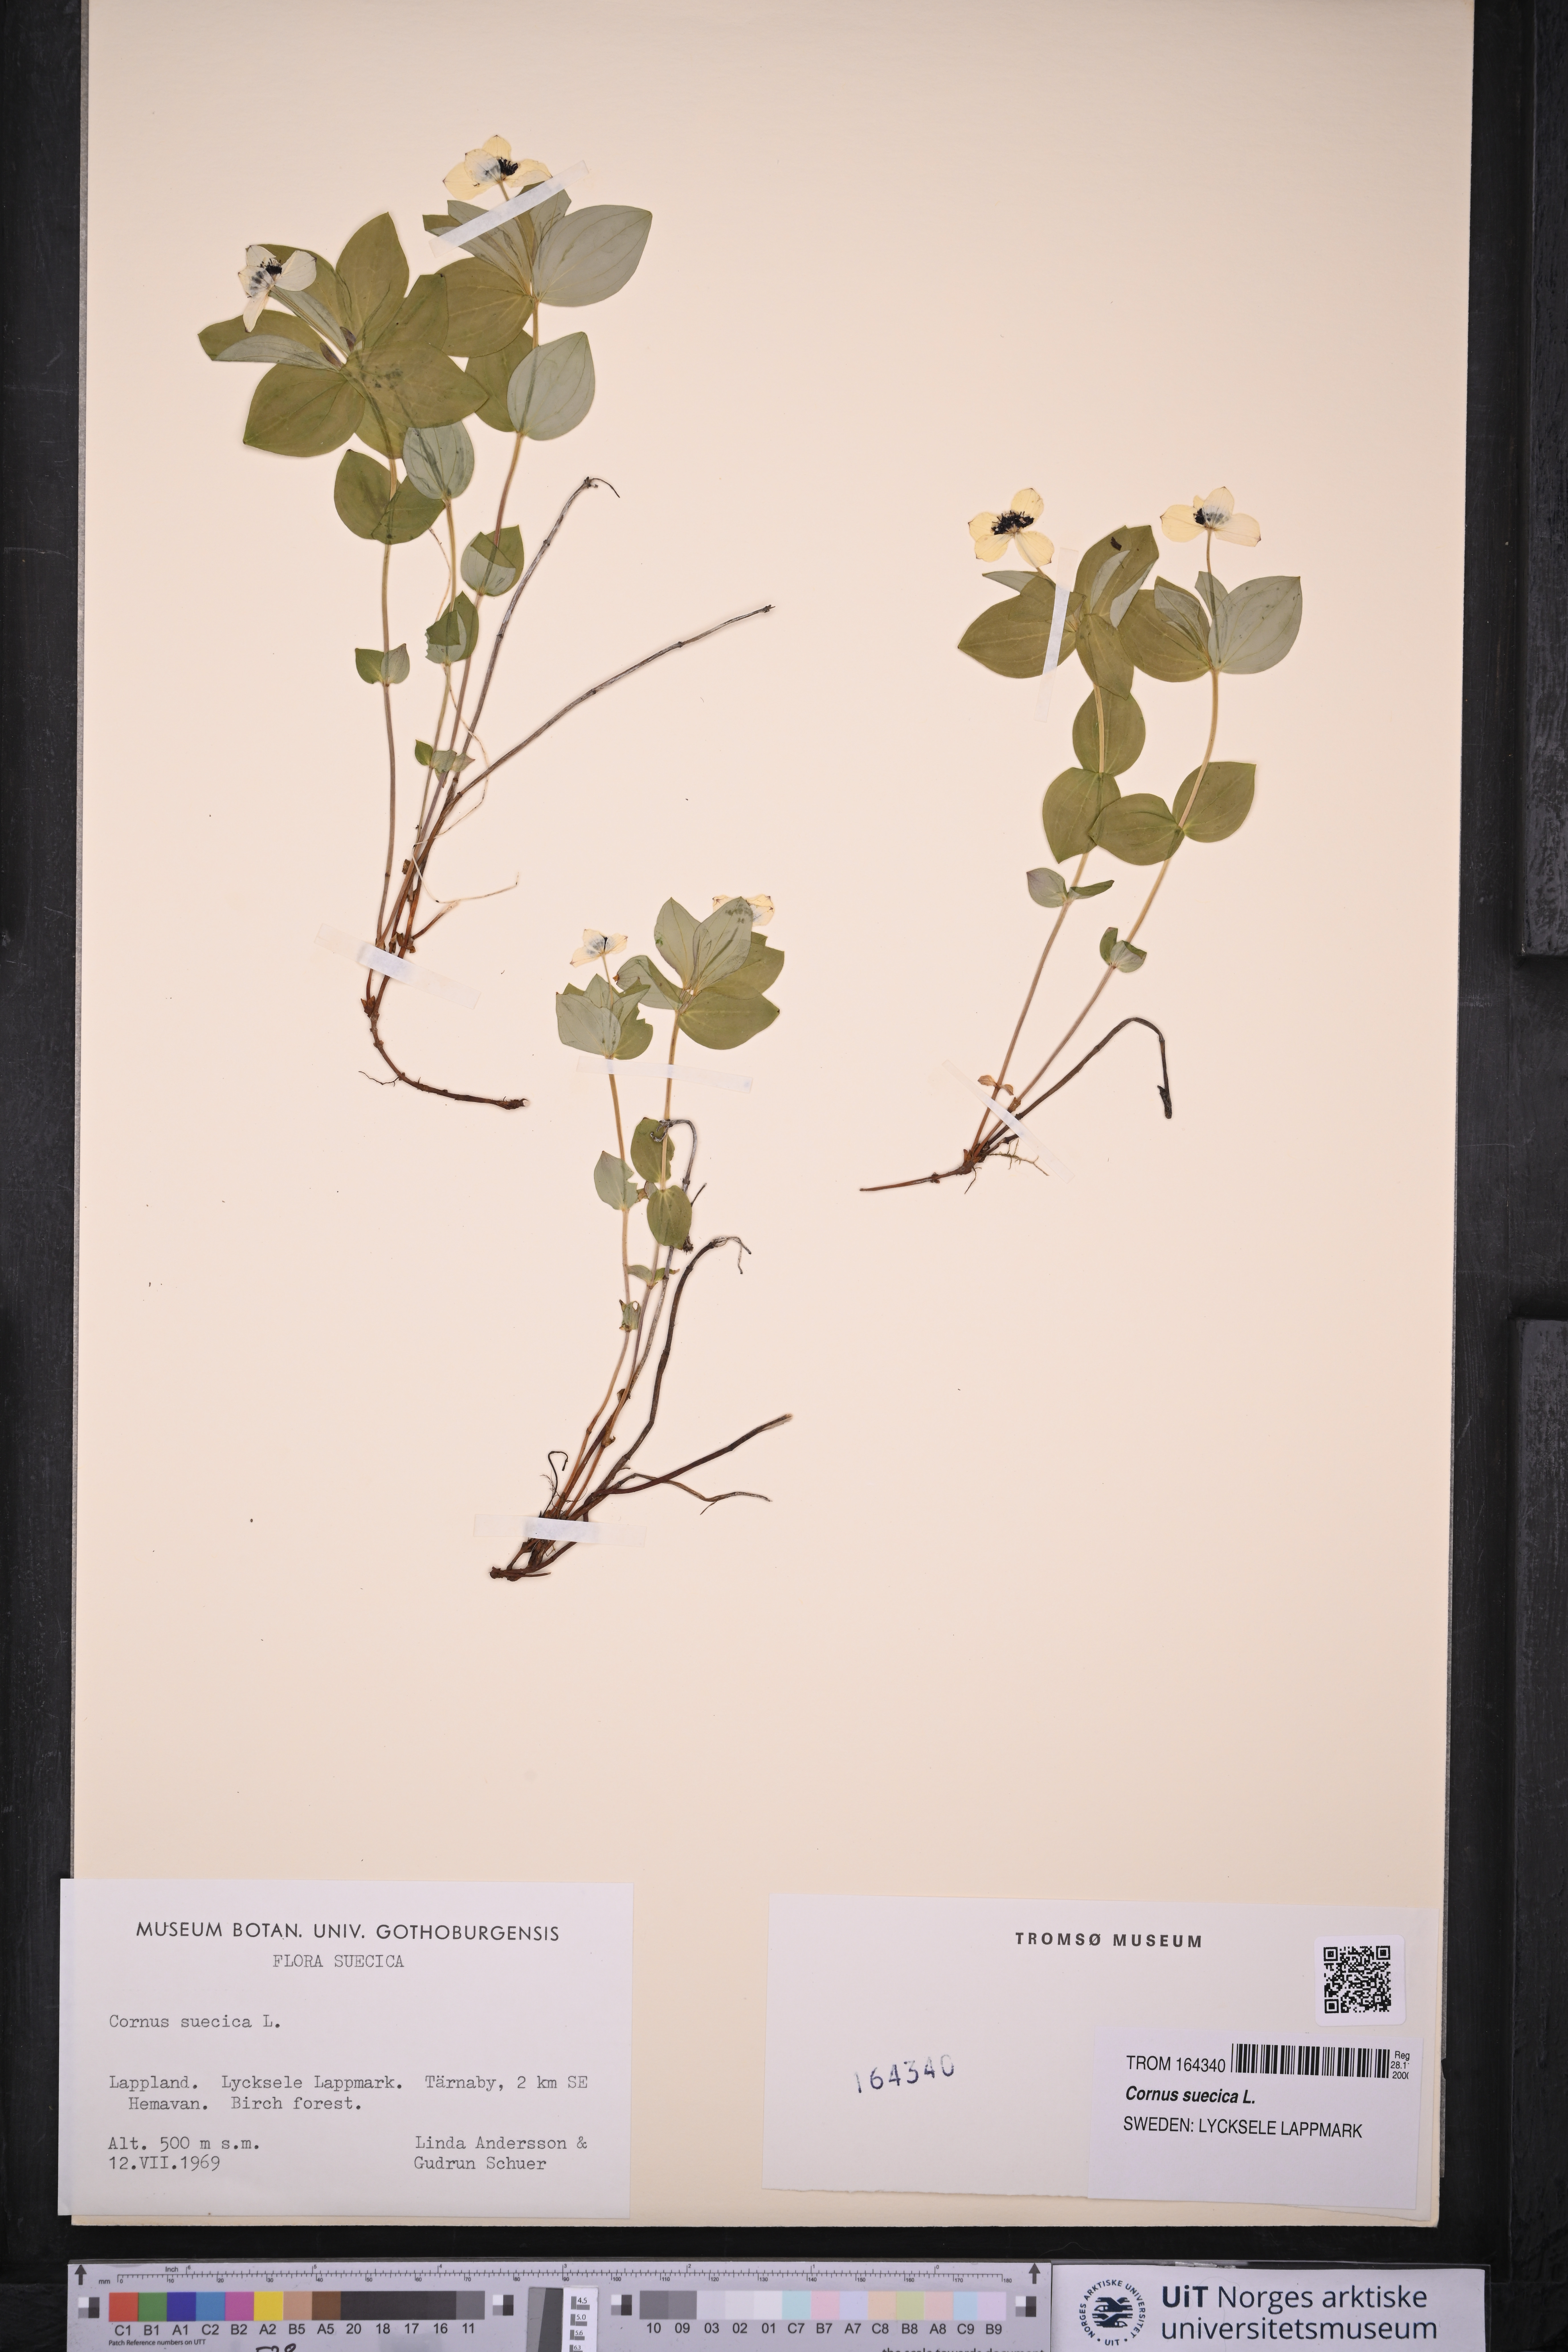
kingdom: Plantae
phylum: Tracheophyta
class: Magnoliopsida
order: Cornales
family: Cornaceae
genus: Cornus
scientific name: Cornus suecica
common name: Dwarf cornel
